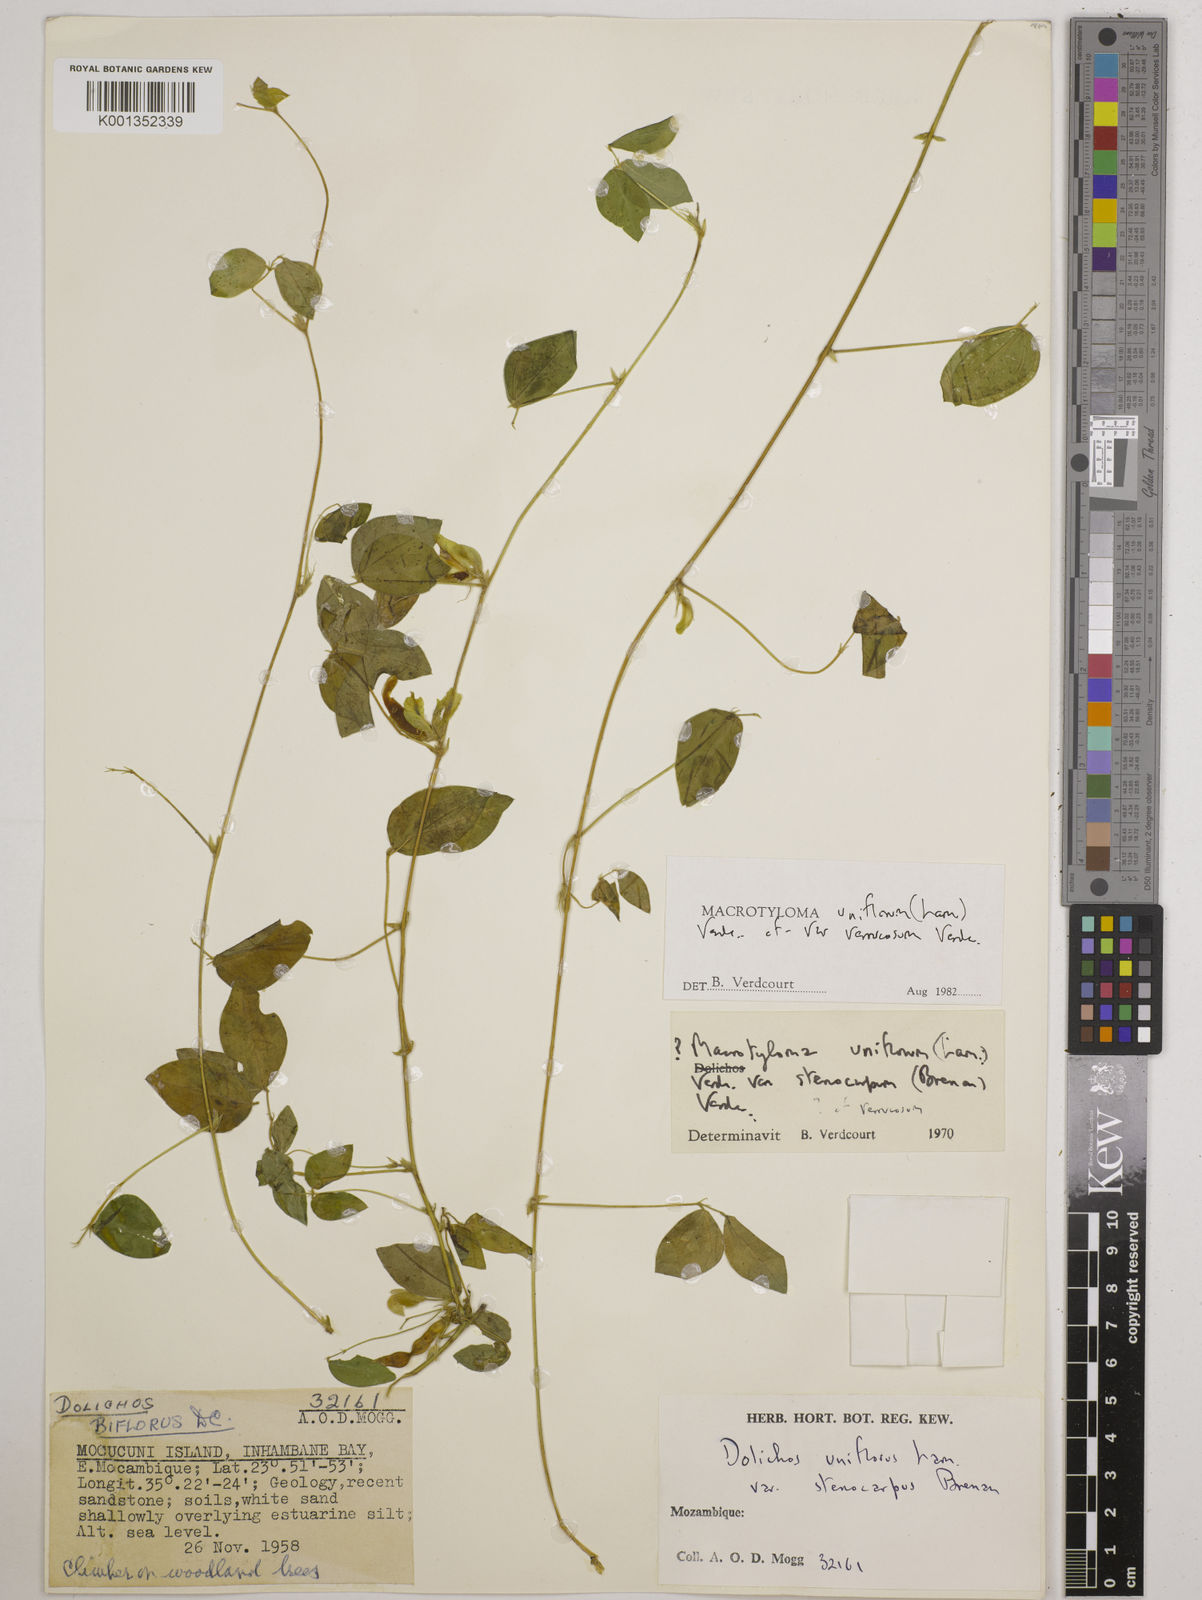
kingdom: Plantae
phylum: Tracheophyta
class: Magnoliopsida
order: Fabales
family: Fabaceae
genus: Macrotyloma
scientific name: Macrotyloma
